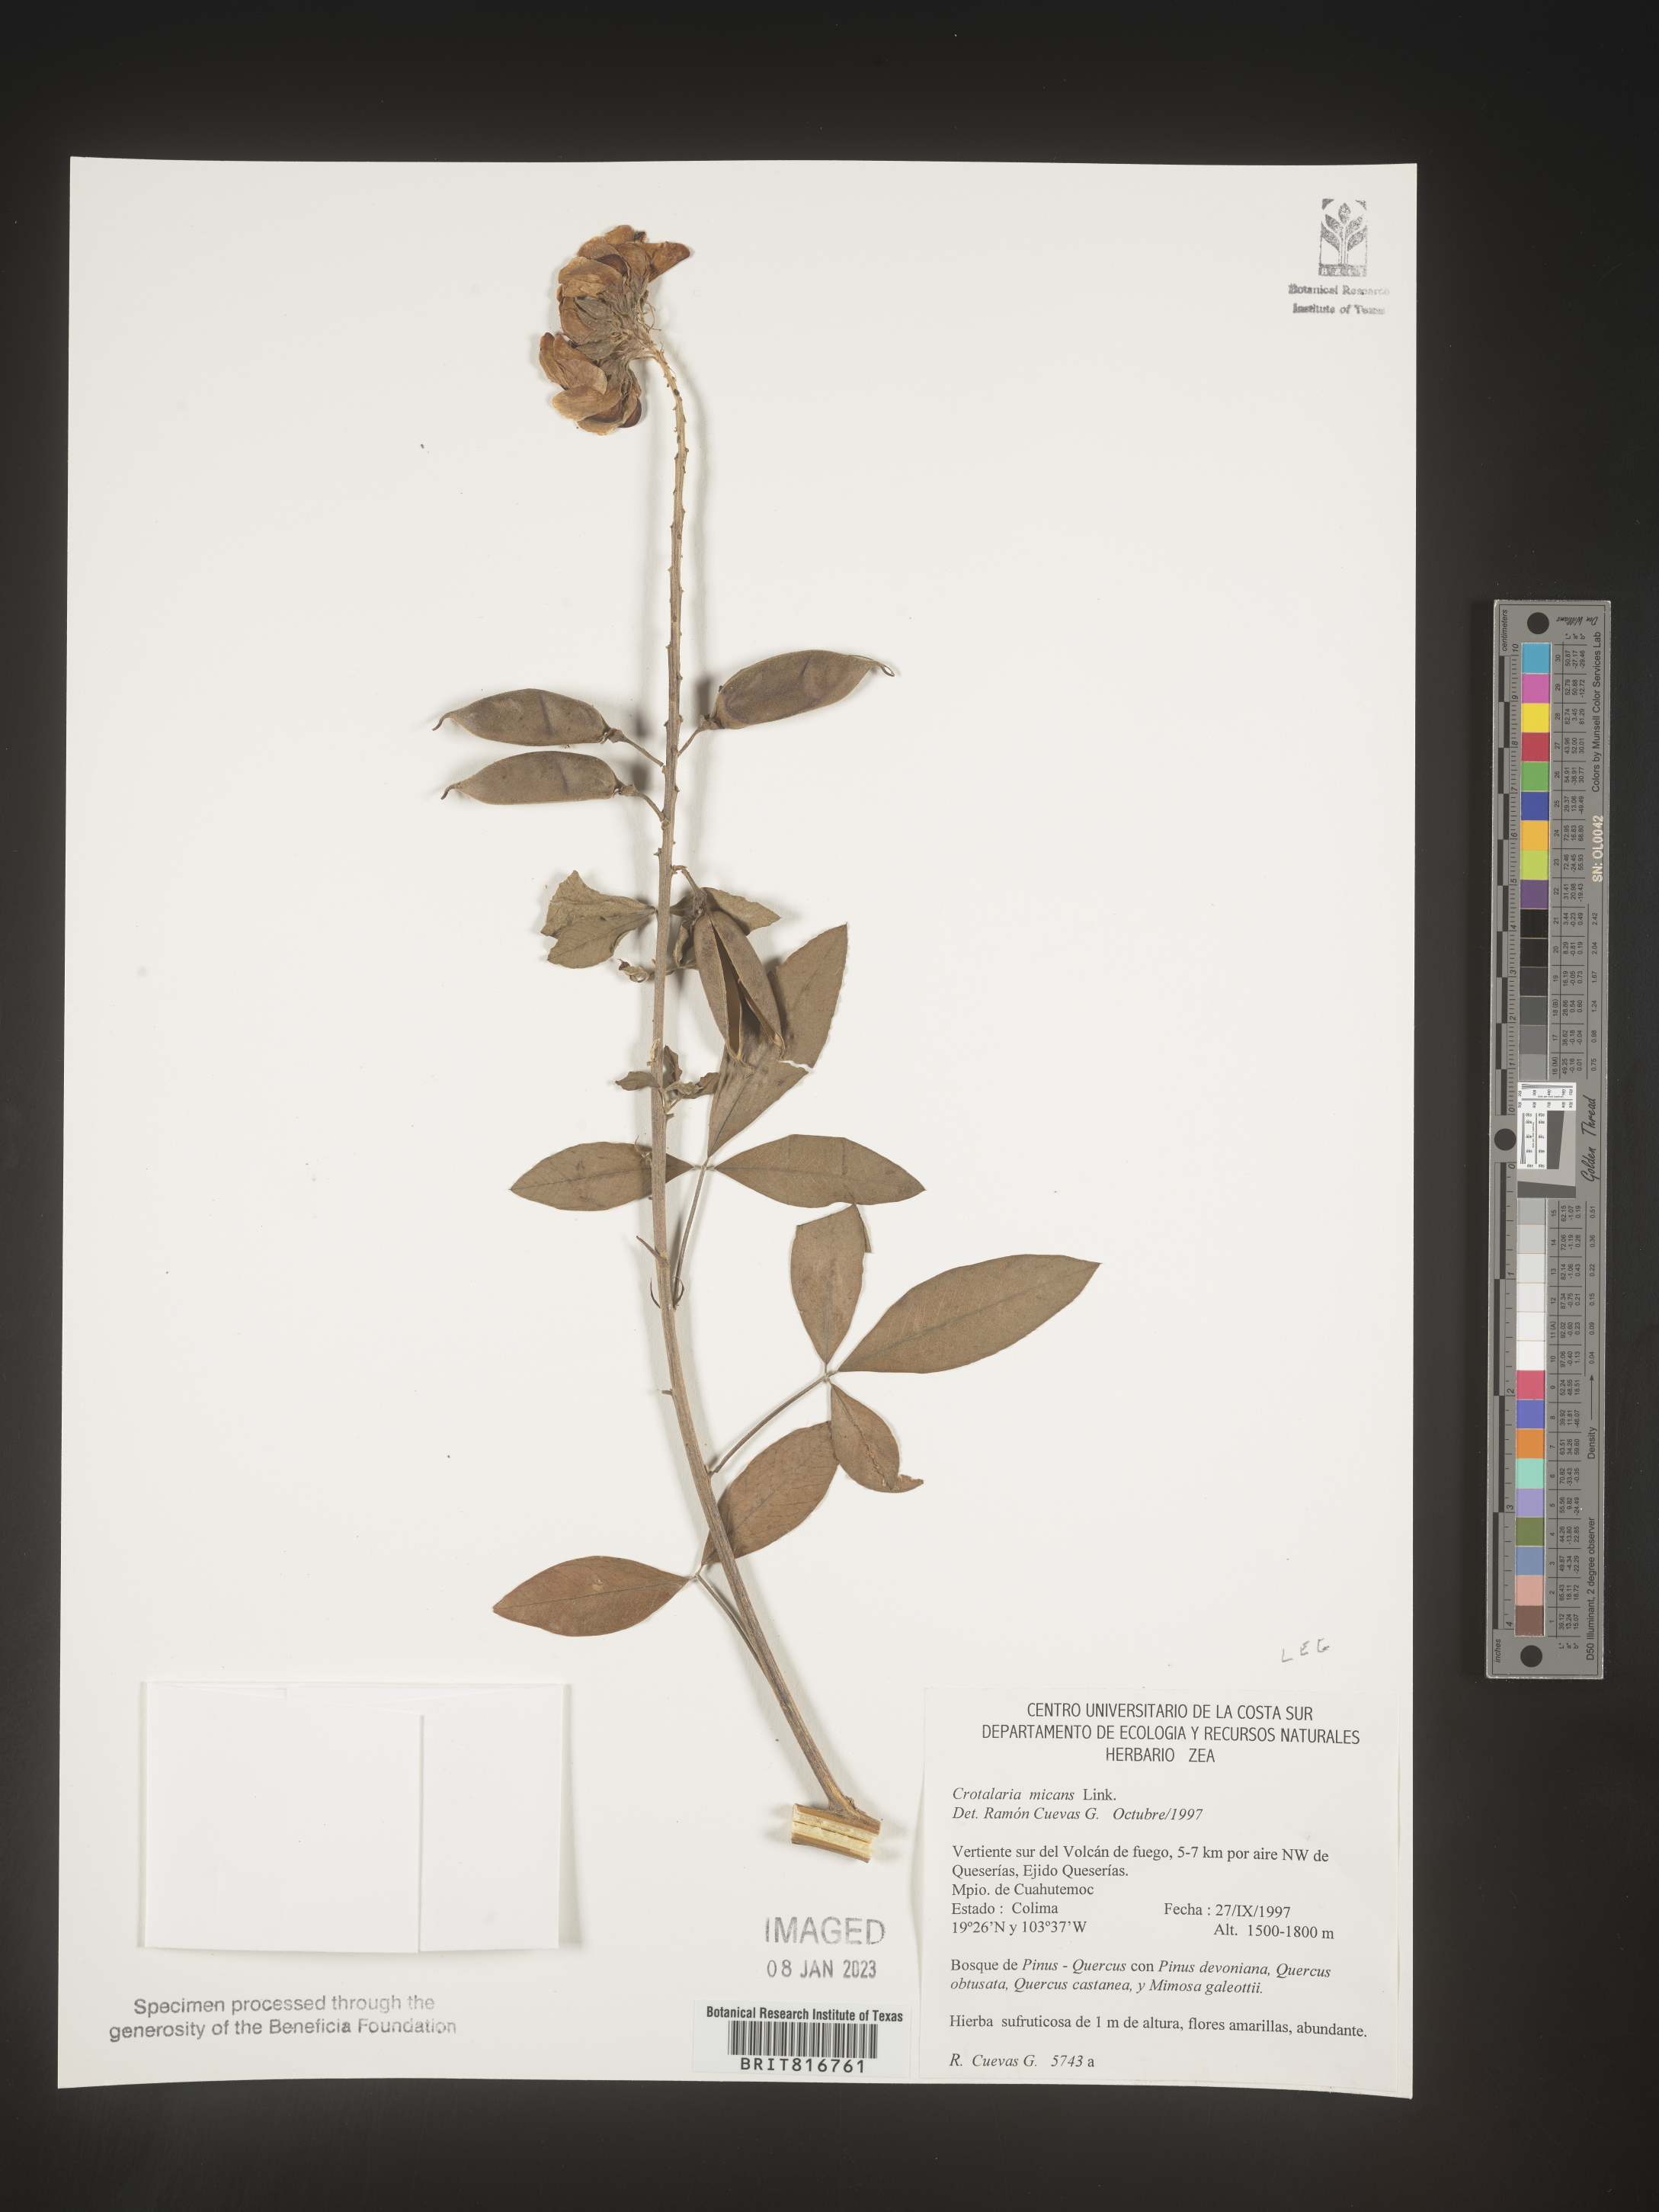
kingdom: Plantae
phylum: Tracheophyta
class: Magnoliopsida
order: Fabales
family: Fabaceae
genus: Crotalaria
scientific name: Crotalaria
